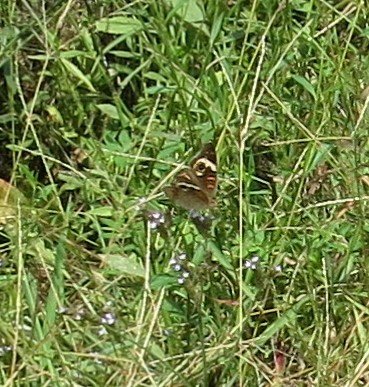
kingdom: Animalia
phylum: Arthropoda
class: Insecta
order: Lepidoptera
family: Nymphalidae
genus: Junonia
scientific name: Junonia coenia
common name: Common Buckeye
